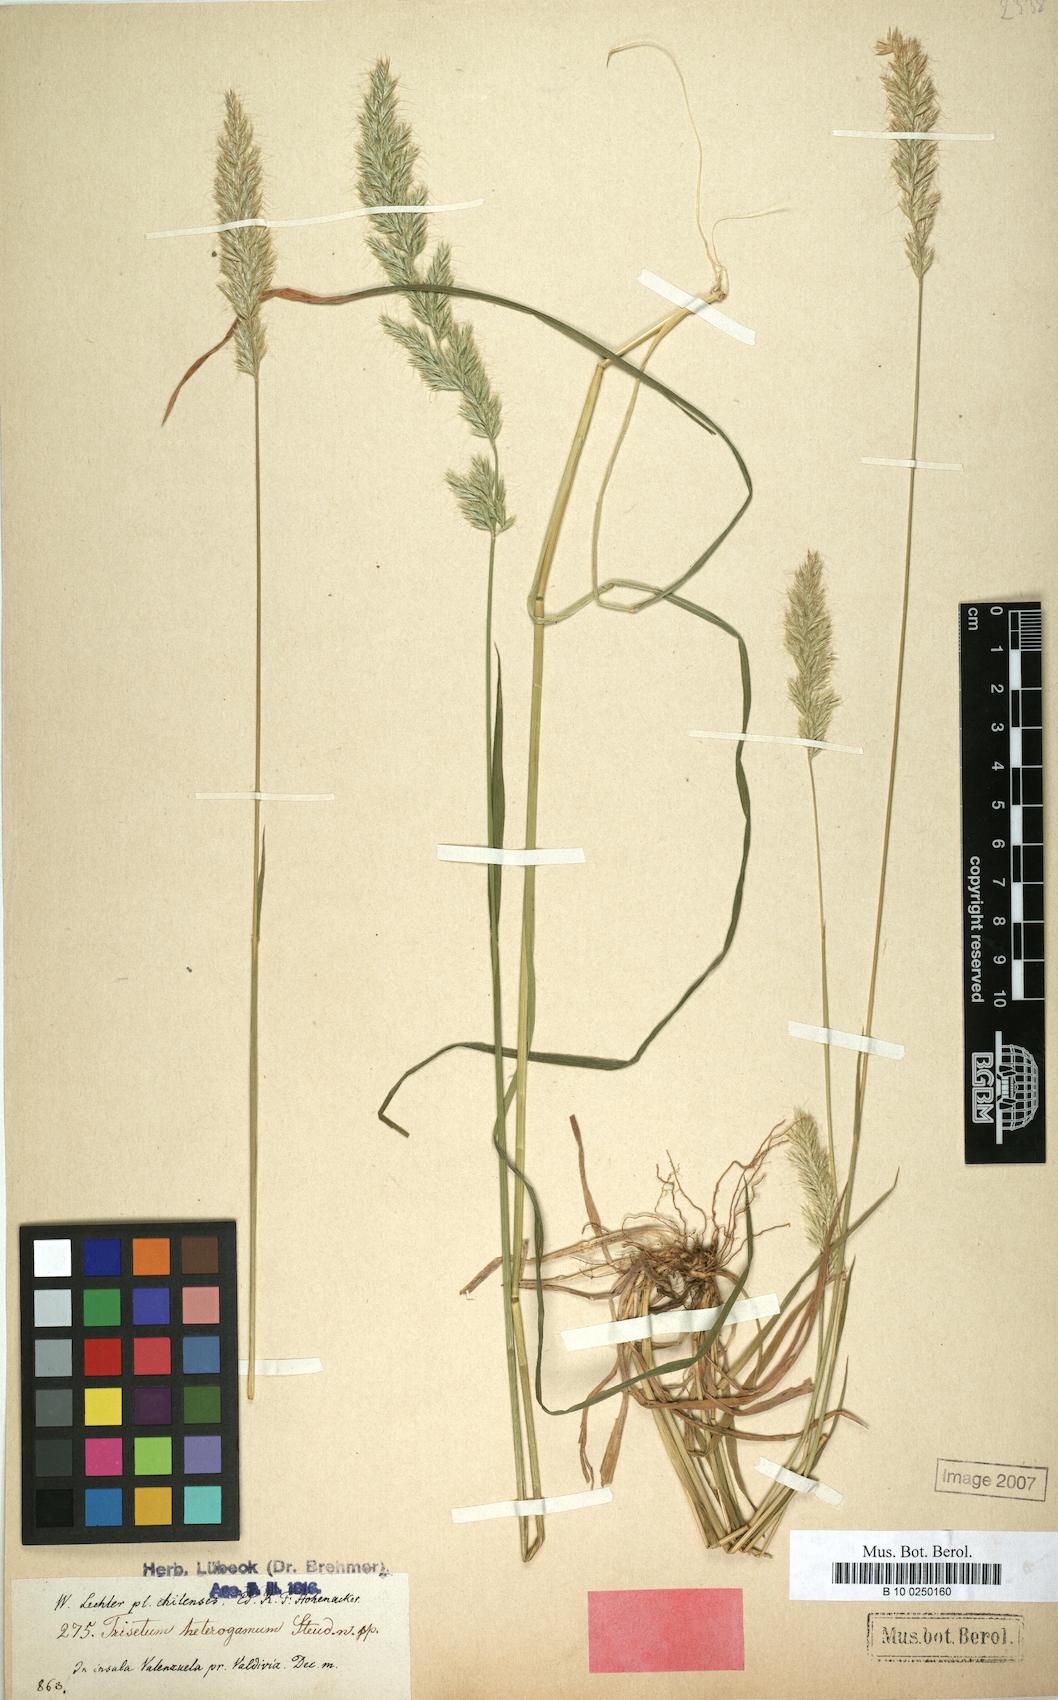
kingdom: Plantae
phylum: Tracheophyta
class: Liliopsida
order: Poales
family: Poaceae
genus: Trisetum
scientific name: Trisetum caudulatum
